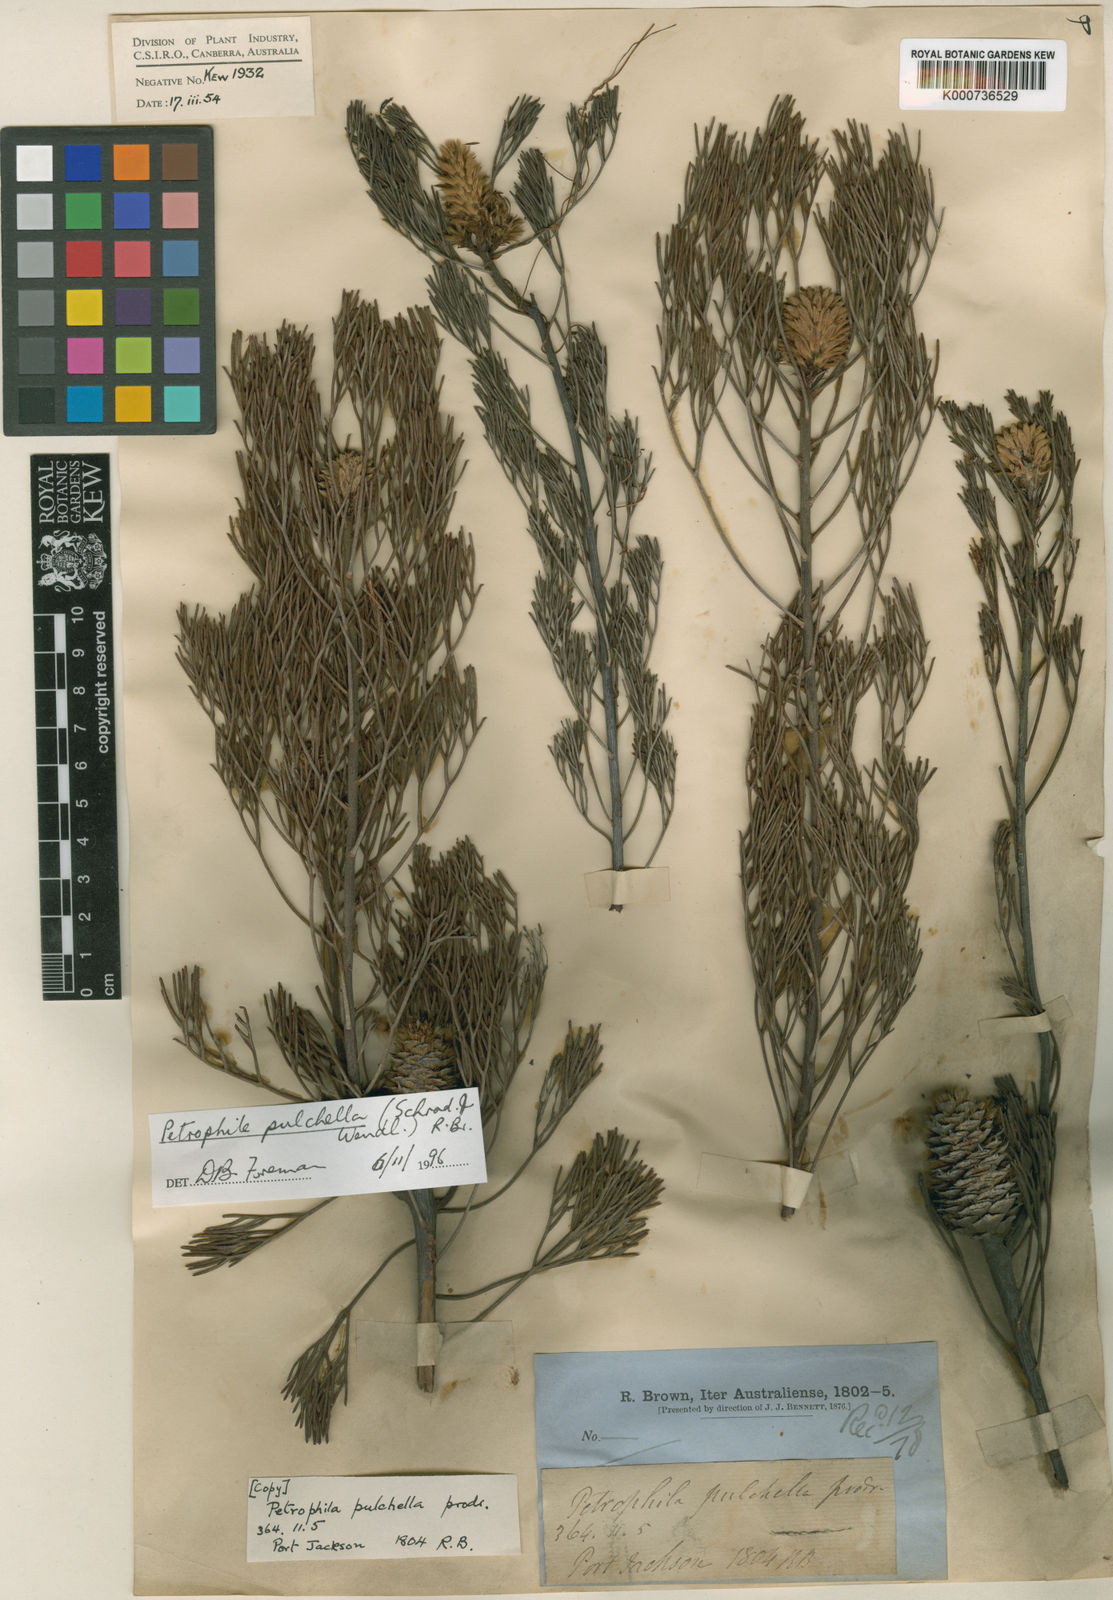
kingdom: Plantae
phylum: Tracheophyta
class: Magnoliopsida
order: Proteales
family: Proteaceae
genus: Petrophile
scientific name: Petrophile pulchella
